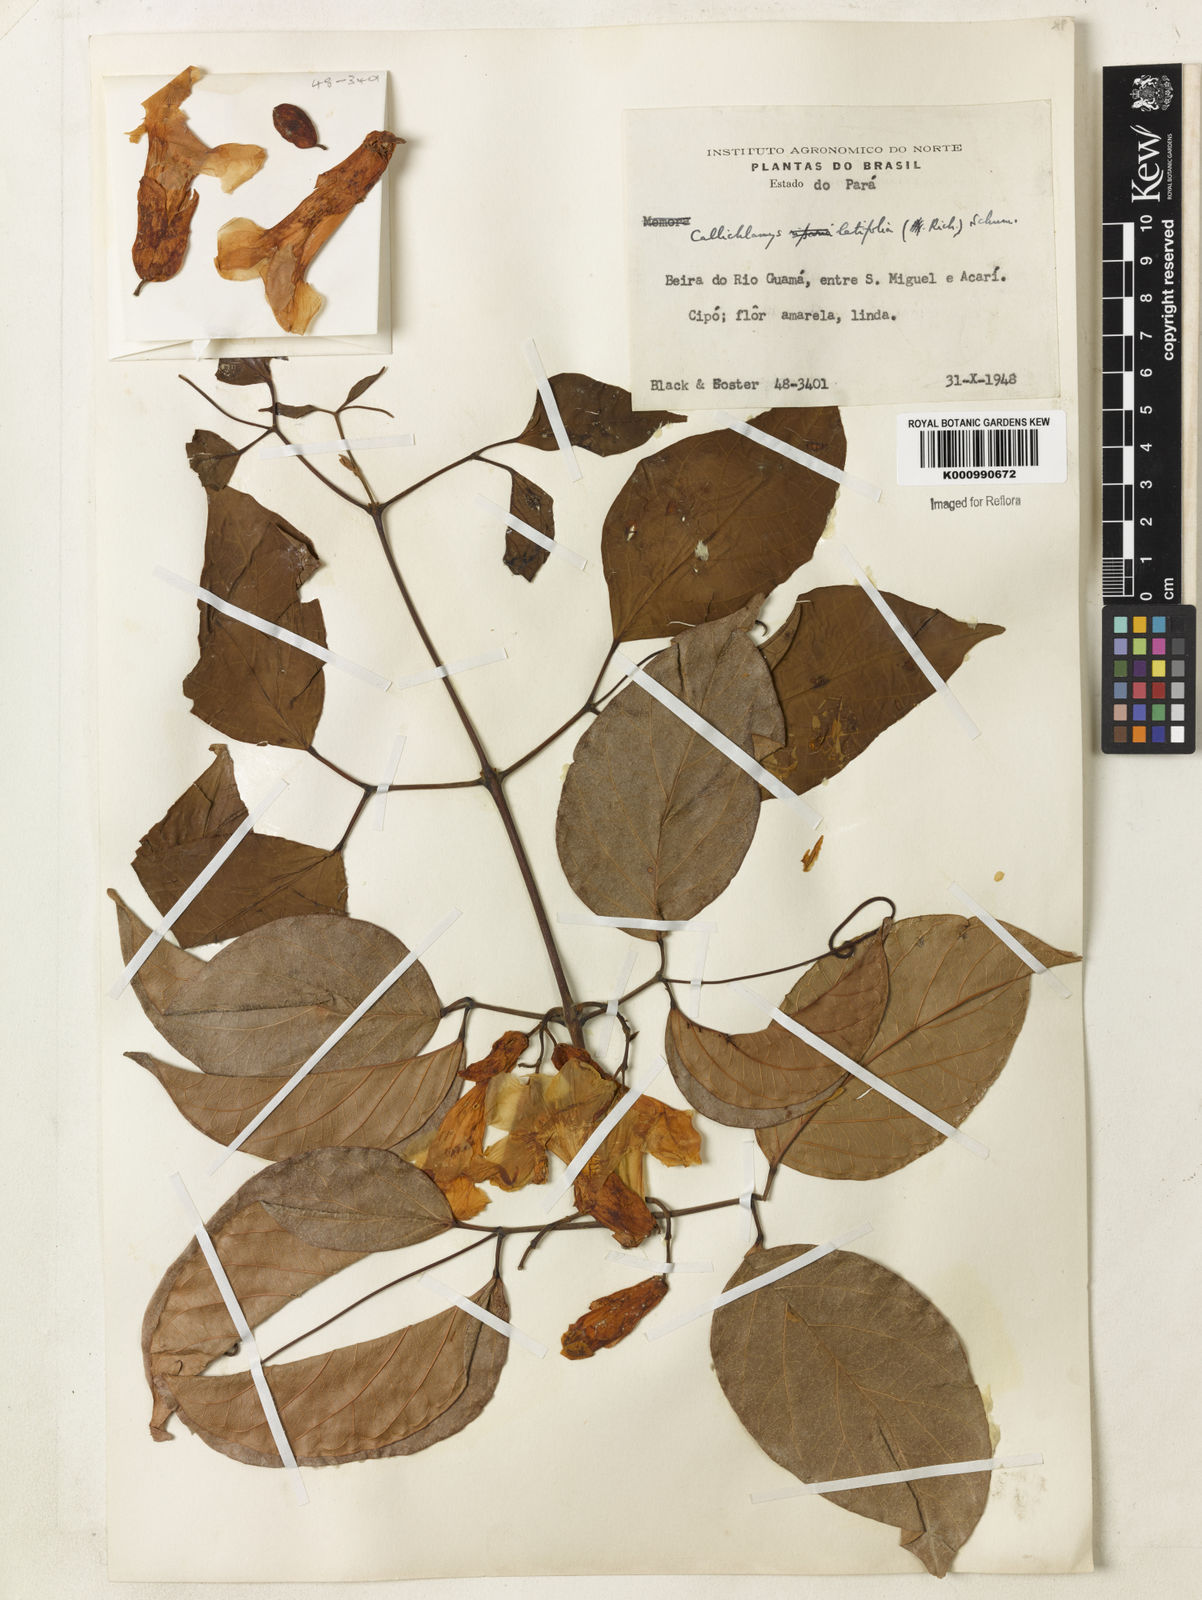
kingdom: Plantae
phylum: Tracheophyta
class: Magnoliopsida
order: Lamiales
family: Bignoniaceae
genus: Callichlamys
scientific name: Callichlamys latifolia
